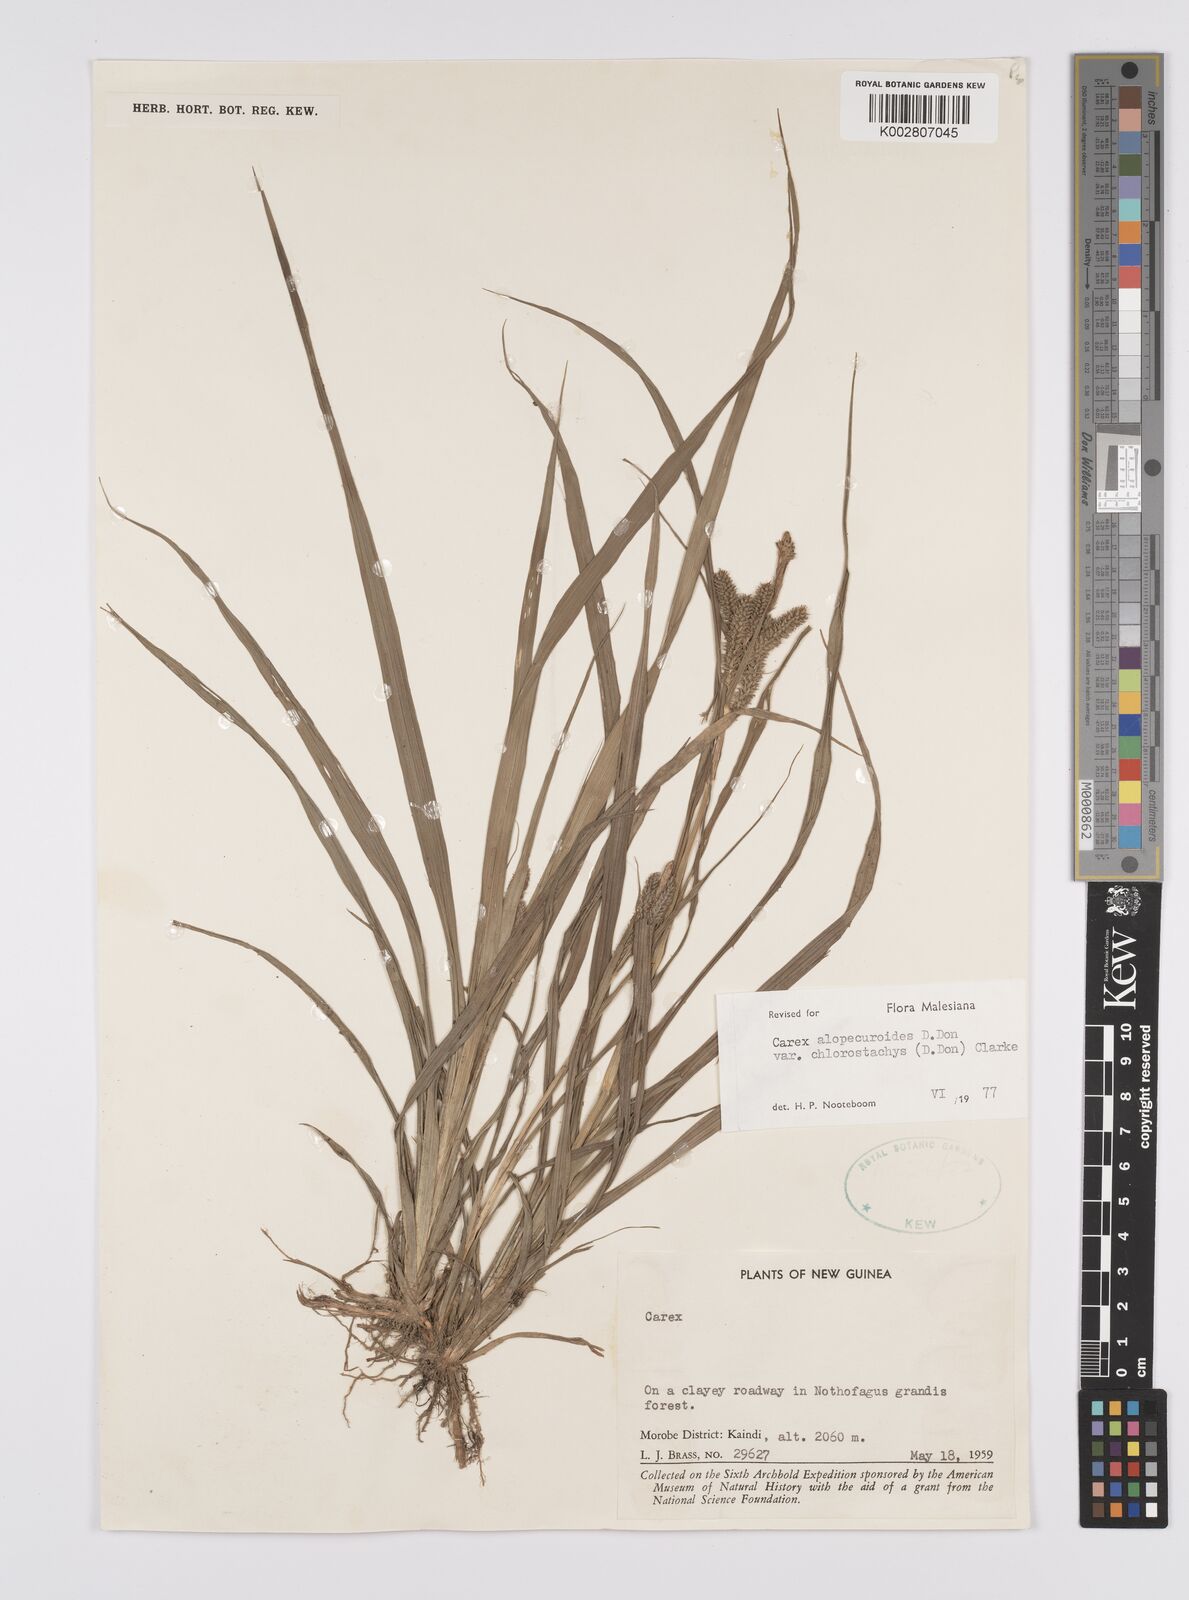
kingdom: Plantae
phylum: Tracheophyta
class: Liliopsida
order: Poales
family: Cyperaceae
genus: Carex
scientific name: Carex alopecuroides
